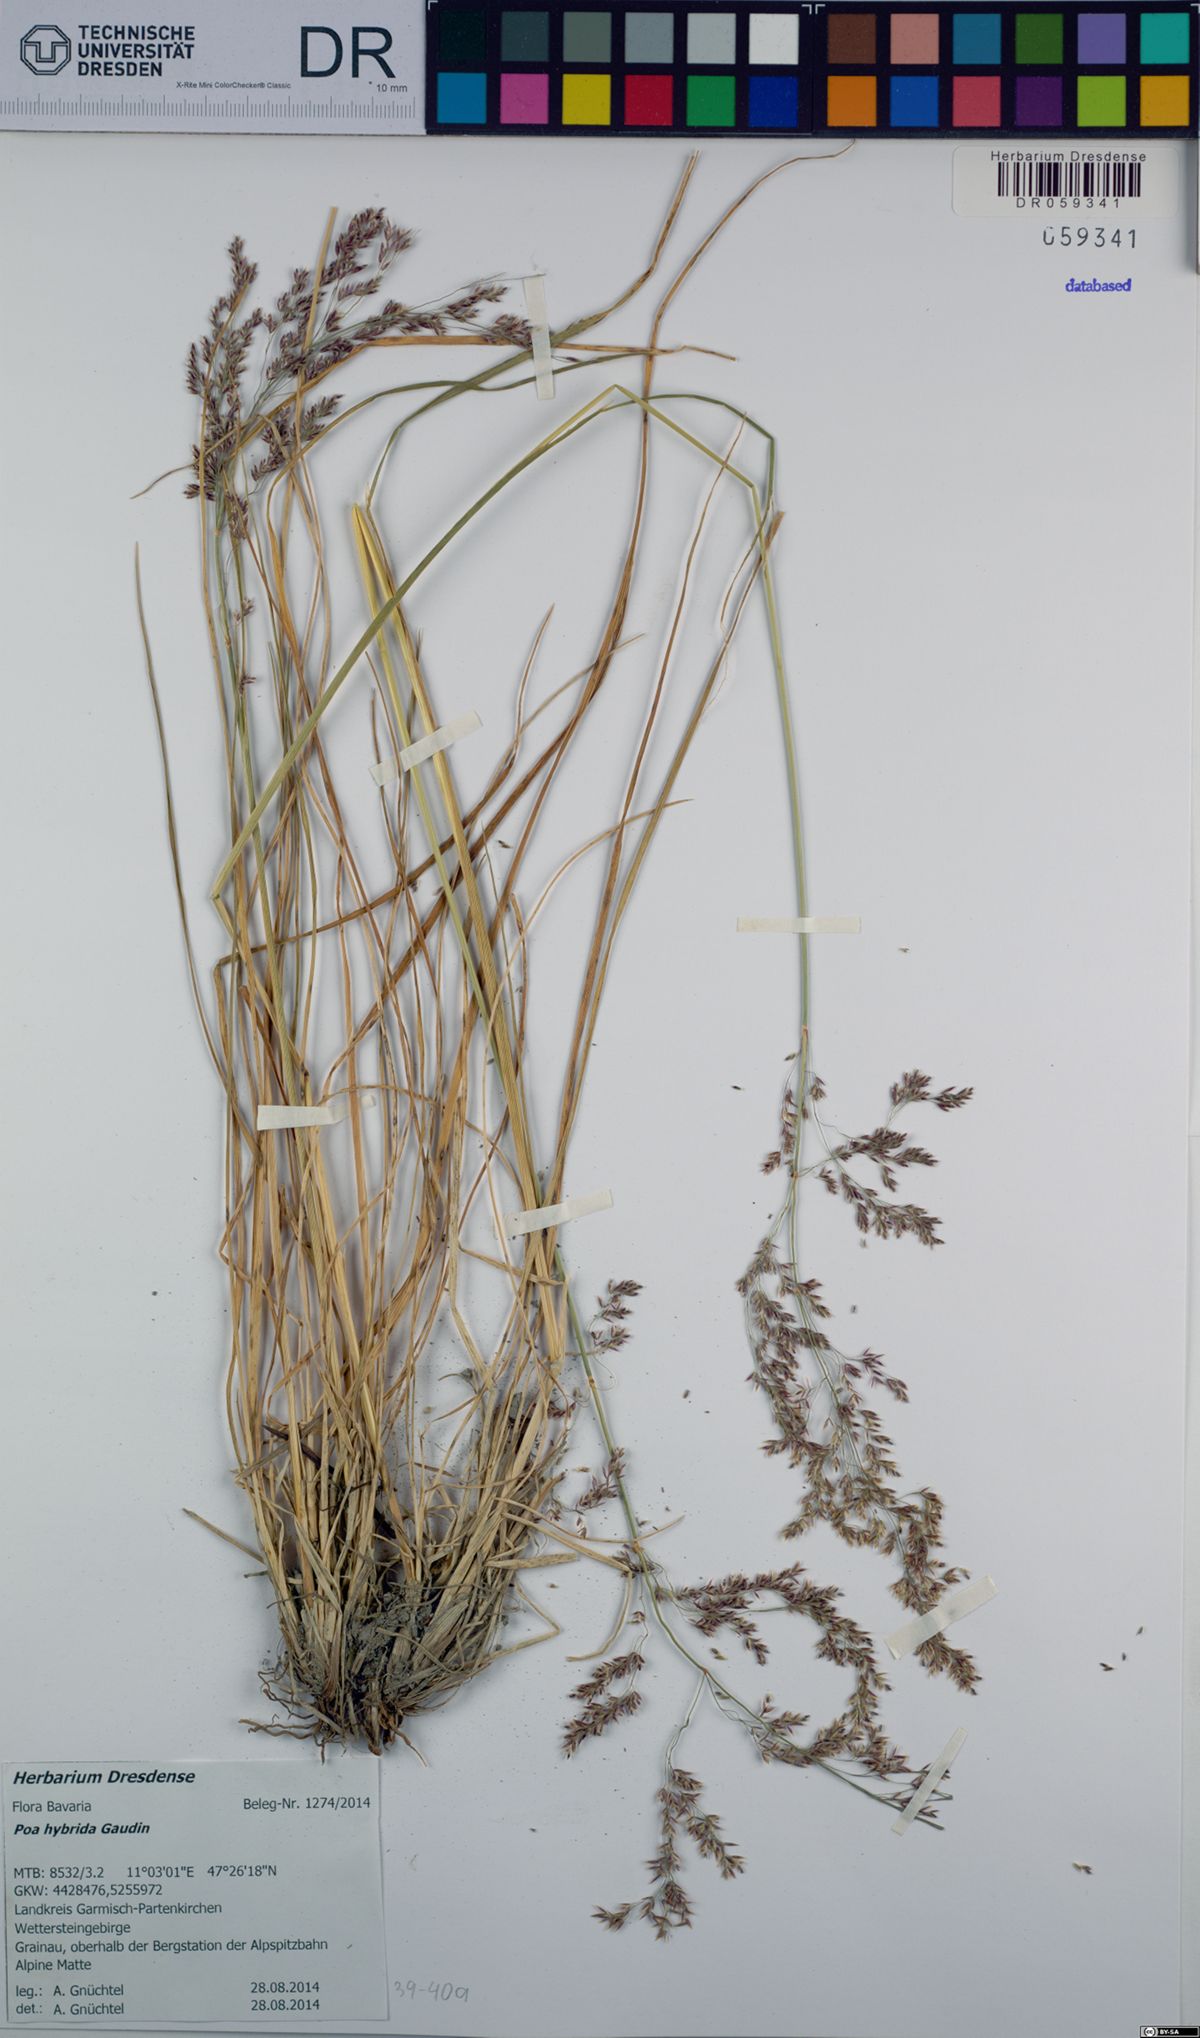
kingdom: Plantae
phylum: Tracheophyta
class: Liliopsida
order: Poales
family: Poaceae
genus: Poa
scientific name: Poa hybrida
